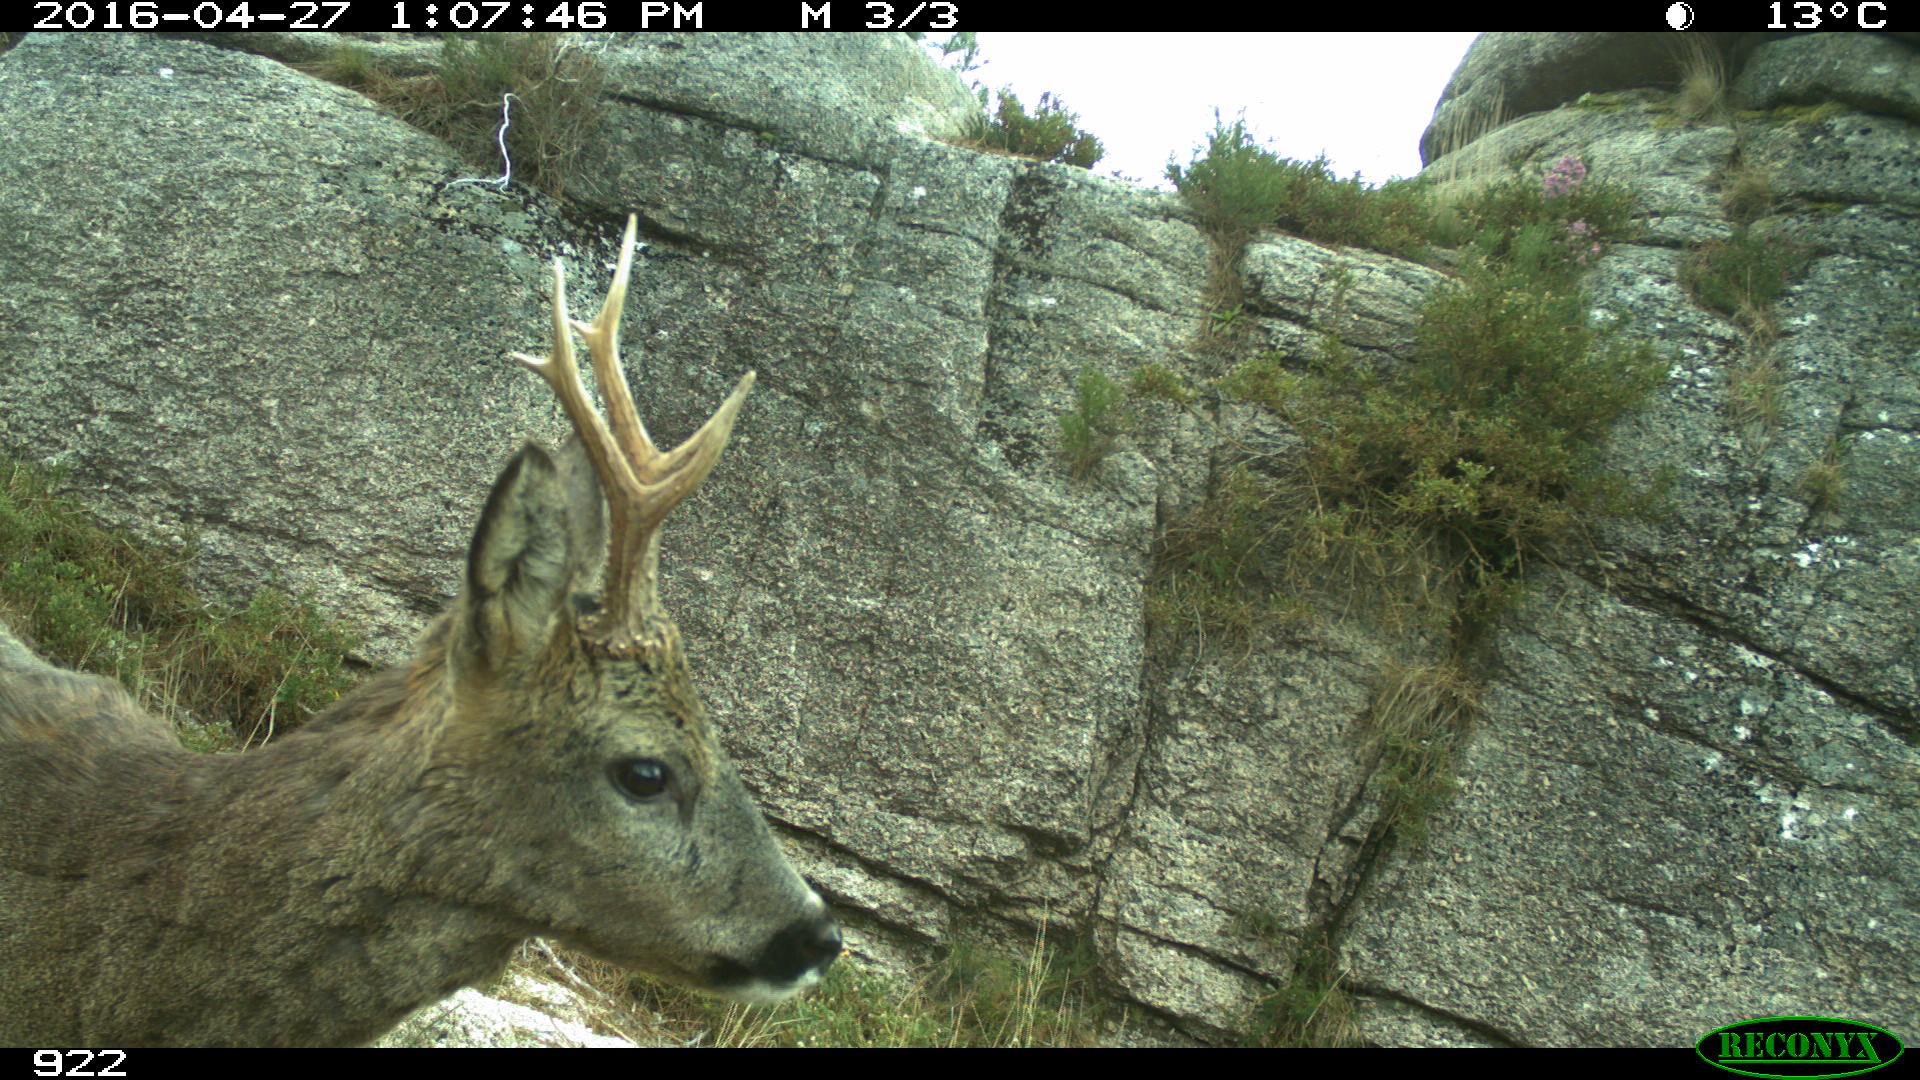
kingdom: Animalia
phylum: Chordata
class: Mammalia
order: Artiodactyla
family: Cervidae
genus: Capreolus
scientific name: Capreolus capreolus
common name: Western roe deer
